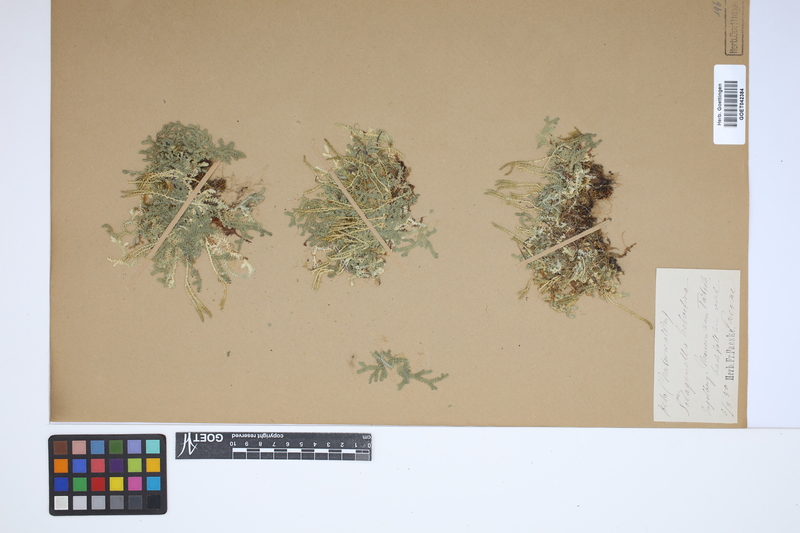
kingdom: Plantae
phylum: Tracheophyta
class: Lycopodiopsida
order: Selaginellales
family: Selaginellaceae
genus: Selaginella
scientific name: Selaginella helvetica
